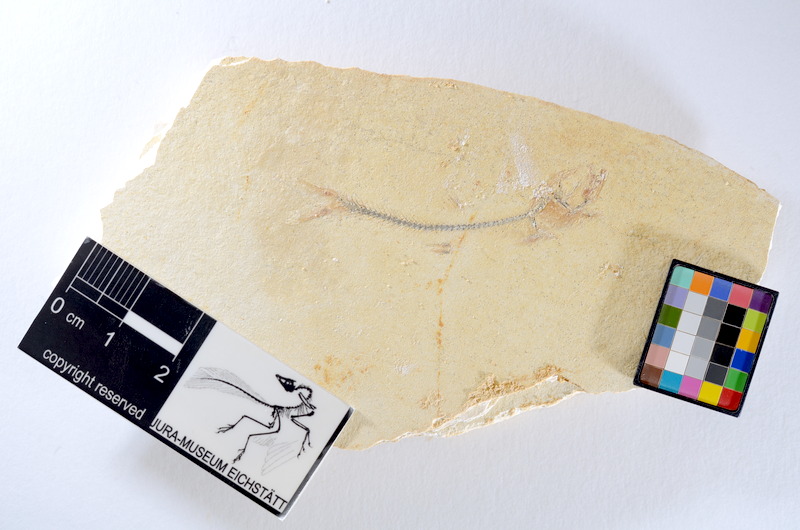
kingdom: Animalia
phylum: Chordata
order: Salmoniformes
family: Orthogonikleithridae
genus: Orthogonikleithrus
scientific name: Orthogonikleithrus hoelli
